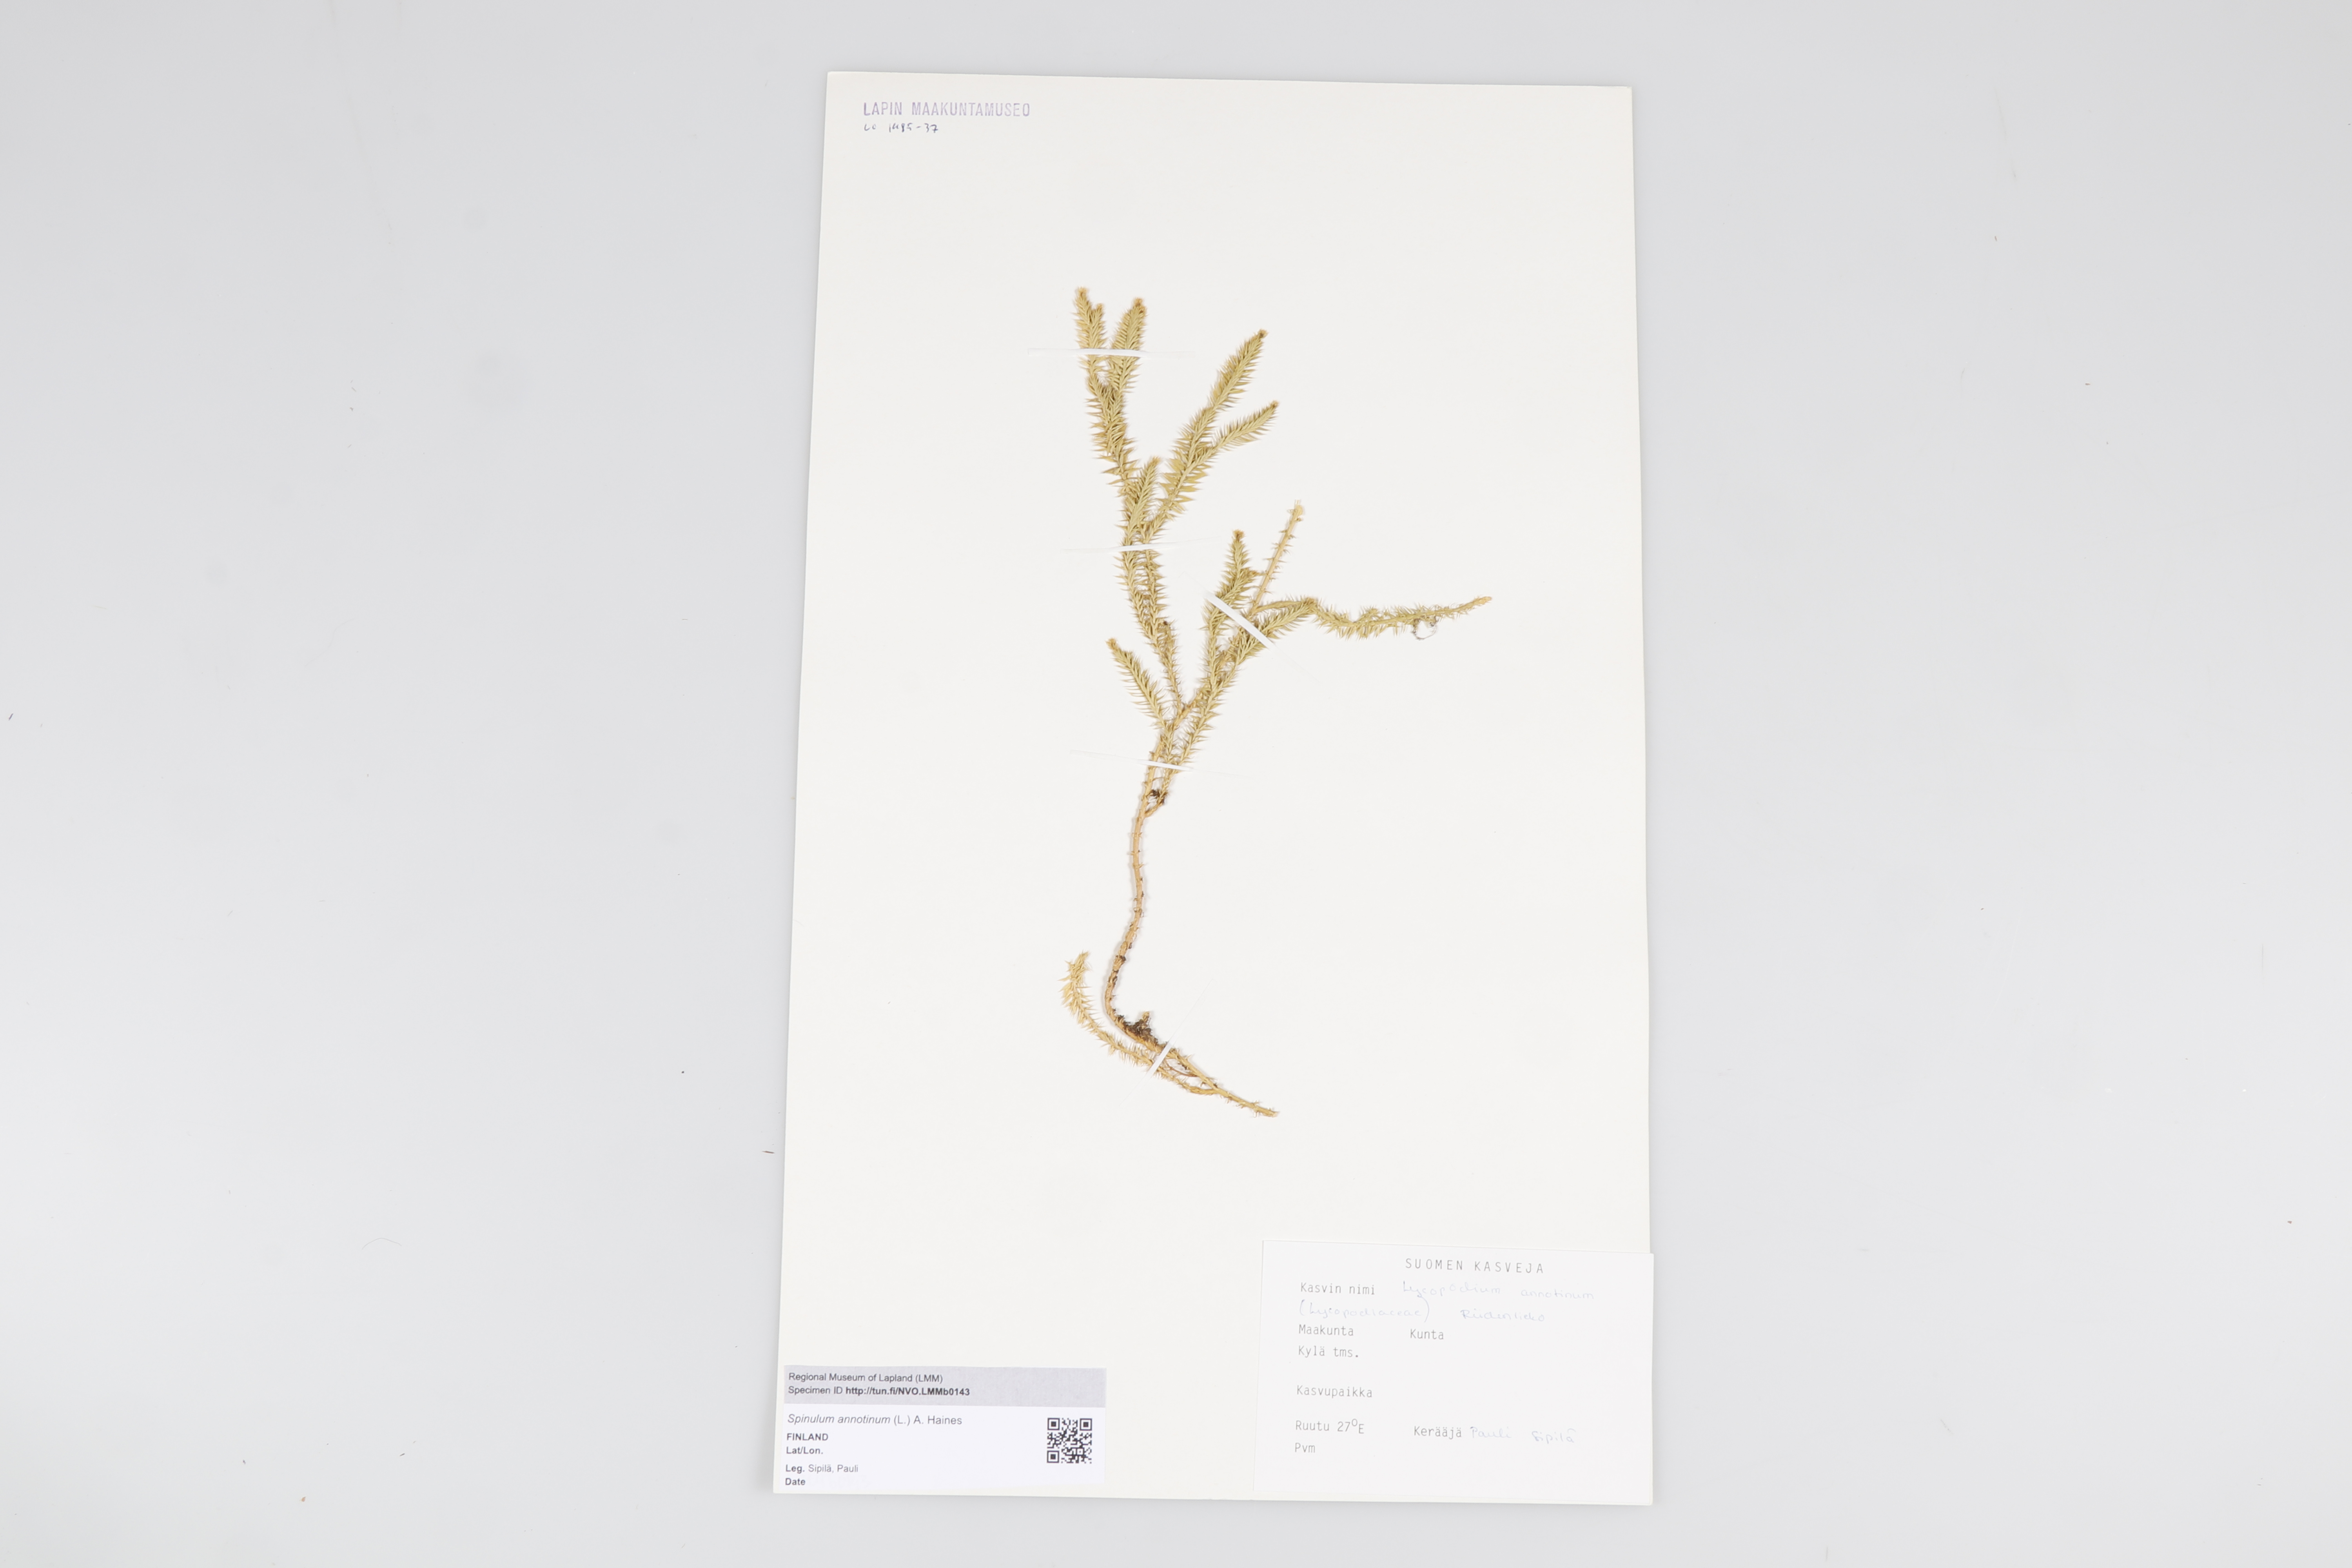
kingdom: Plantae
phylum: Tracheophyta
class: Lycopodiopsida
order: Lycopodiales
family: Lycopodiaceae
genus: Spinulum
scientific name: Spinulum annotinum
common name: Interrupted club-moss
